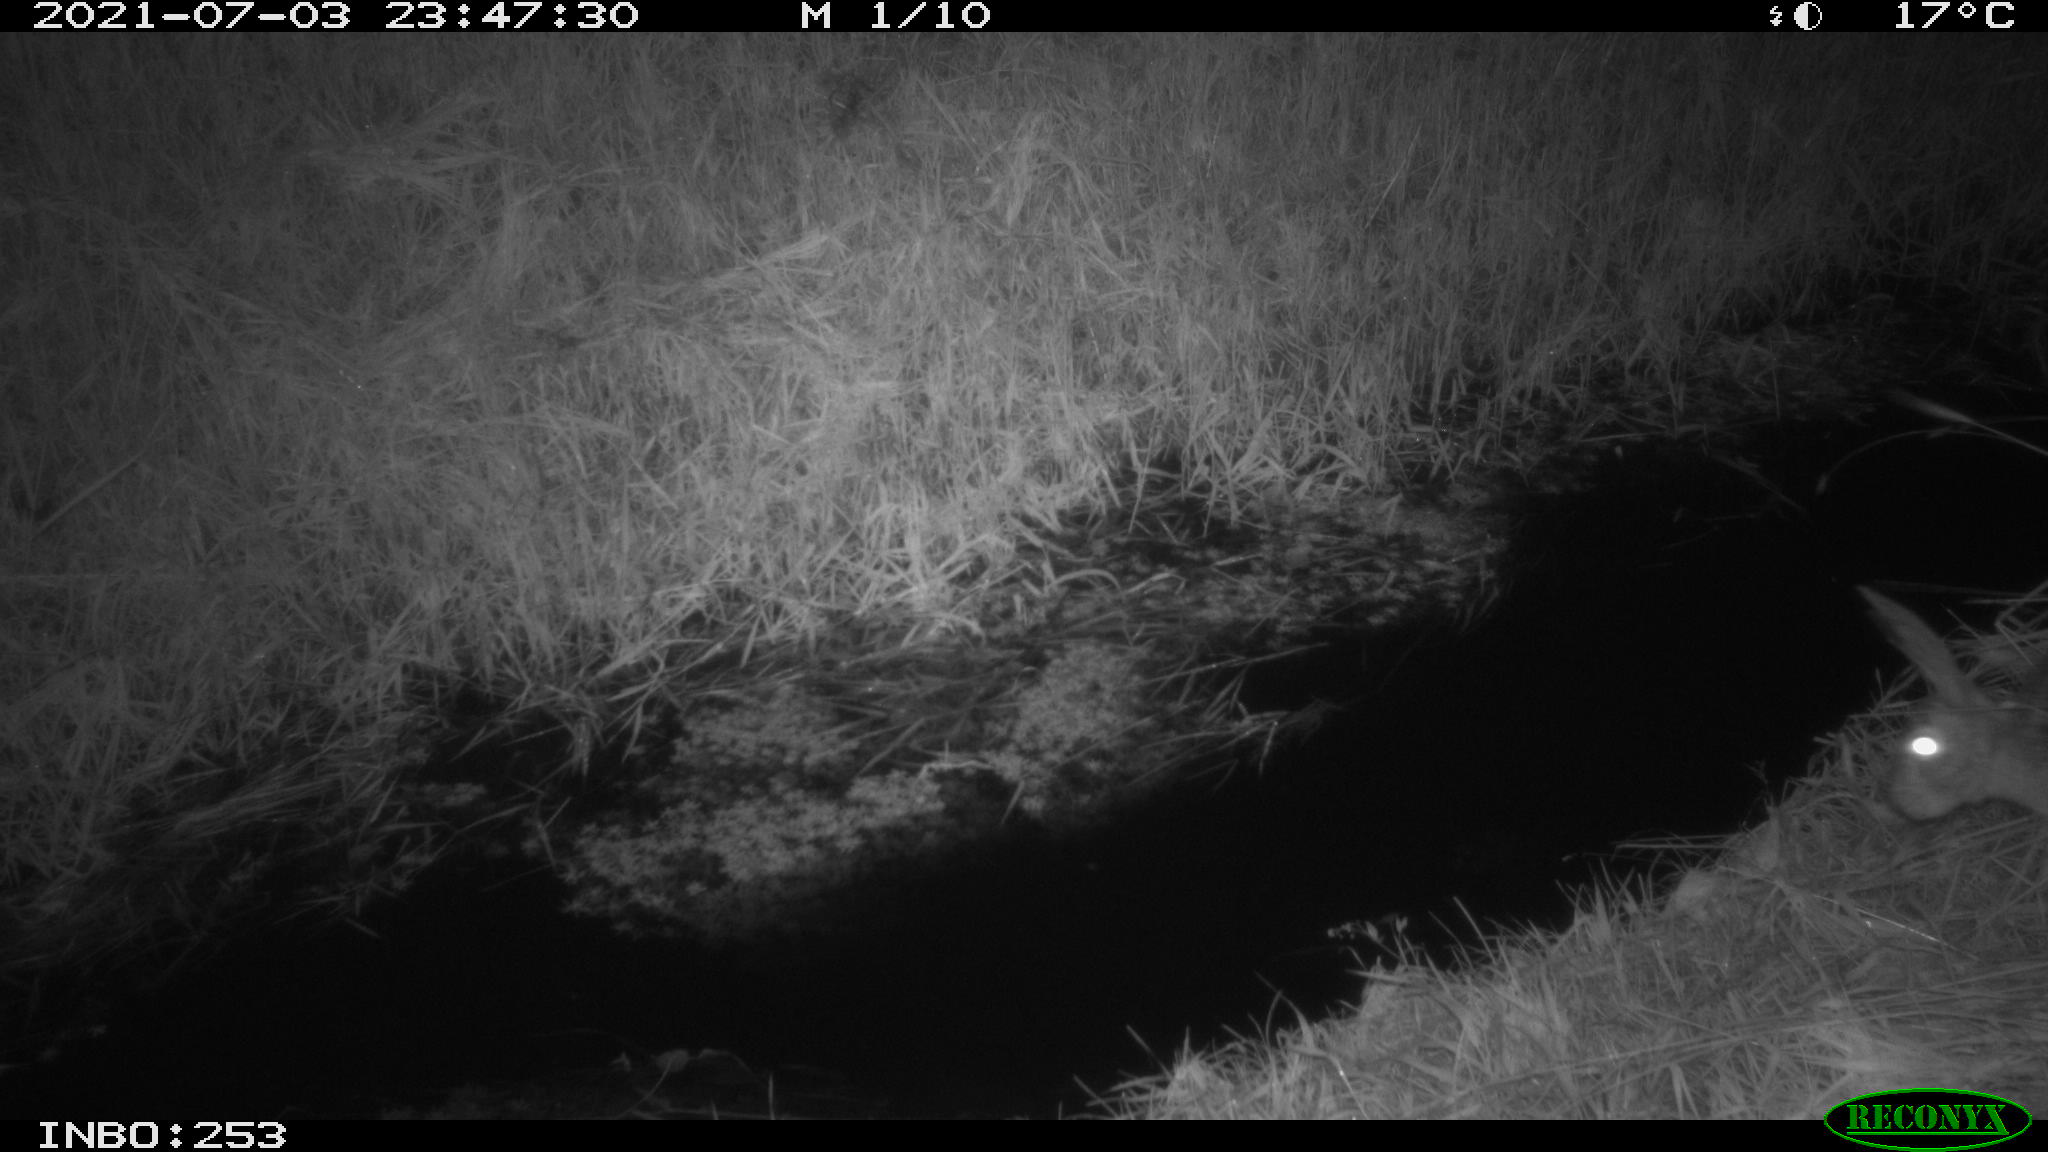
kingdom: Animalia
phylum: Chordata
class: Mammalia
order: Lagomorpha
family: Leporidae
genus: Lepus
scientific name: Lepus europaeus
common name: European hare
